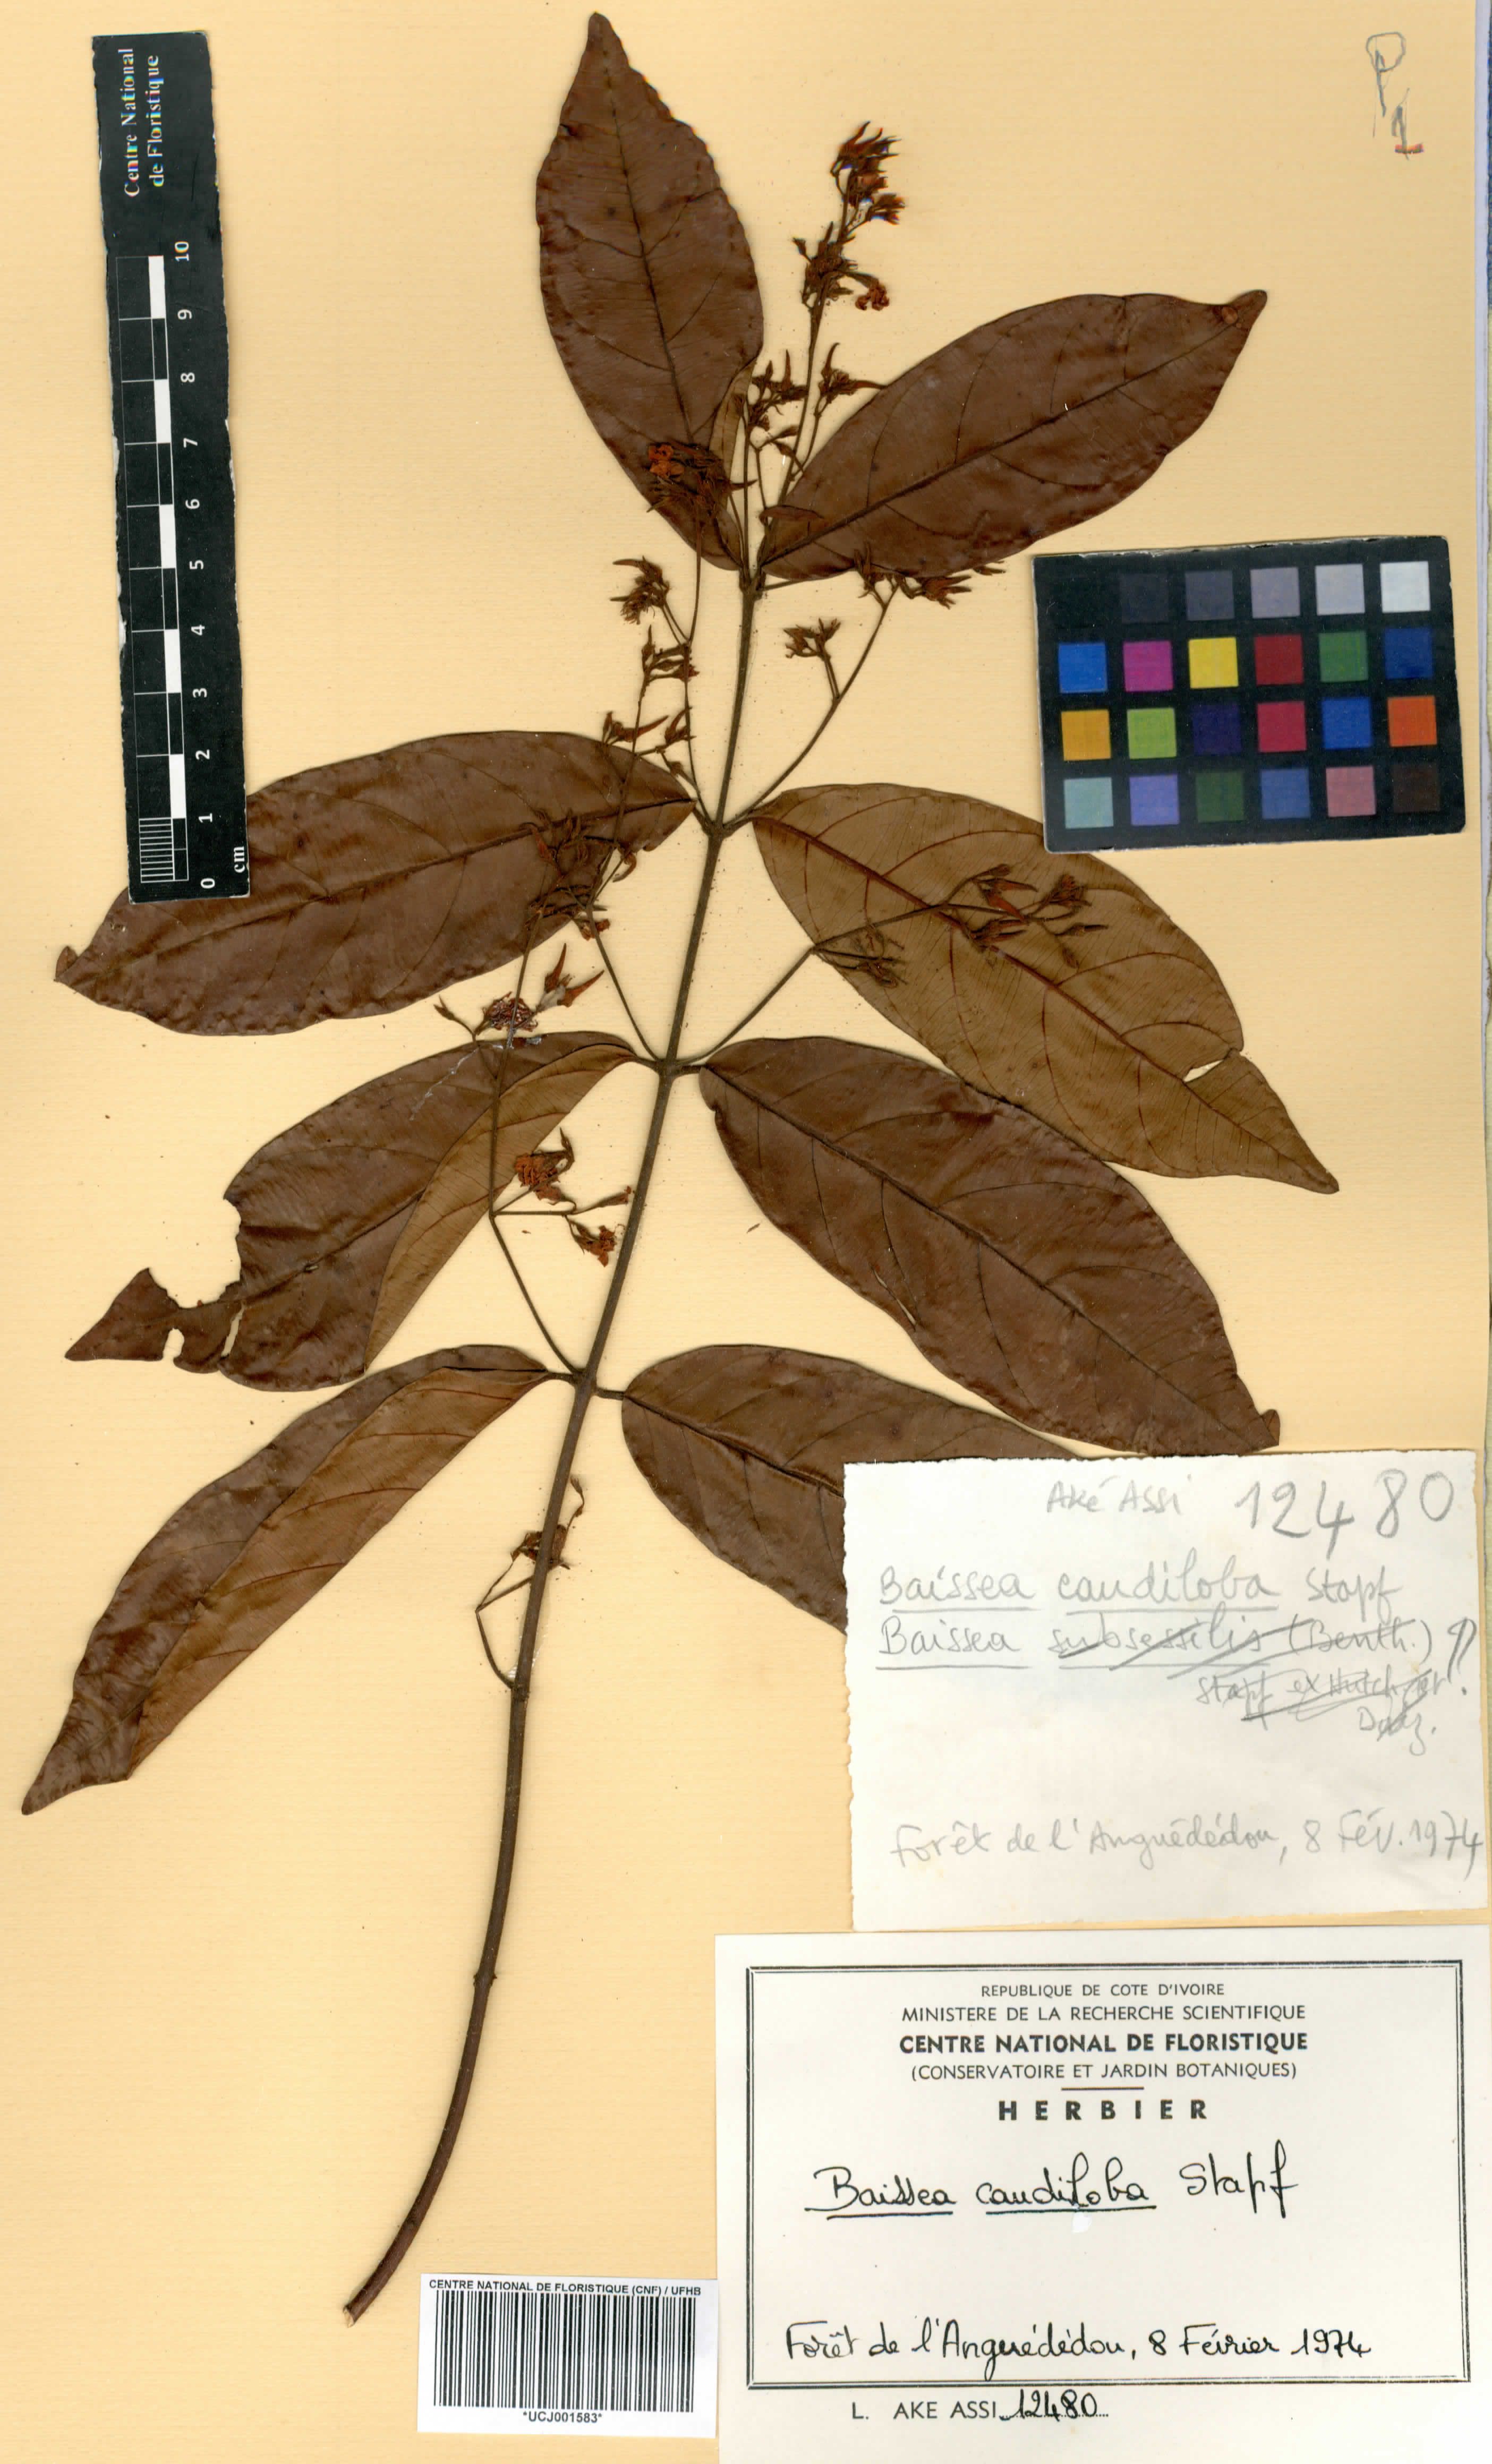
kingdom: Plantae
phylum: Tracheophyta
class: Magnoliopsida
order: Gentianales
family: Apocynaceae
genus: Baissea
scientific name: Baissea multiflora
